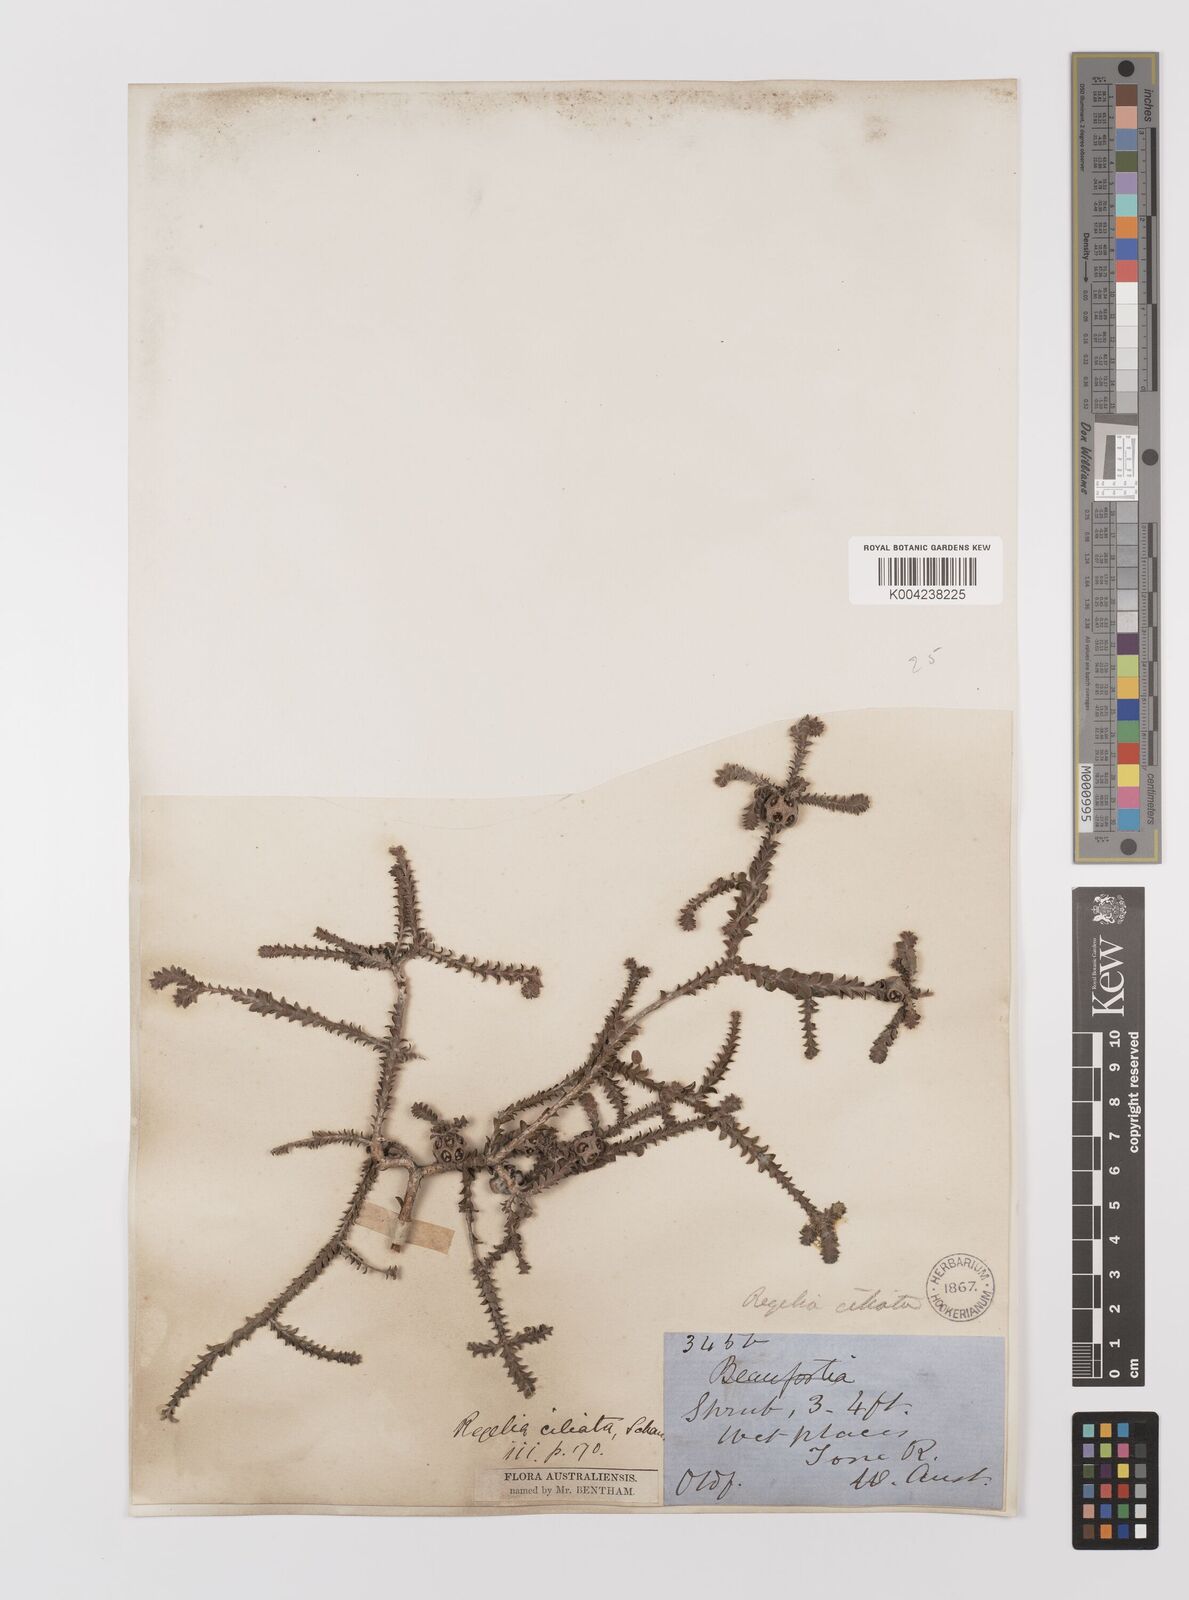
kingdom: Plantae
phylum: Tracheophyta
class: Magnoliopsida
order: Myrtales
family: Myrtaceae
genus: Melaleuca
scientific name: Melaleuca crossota
